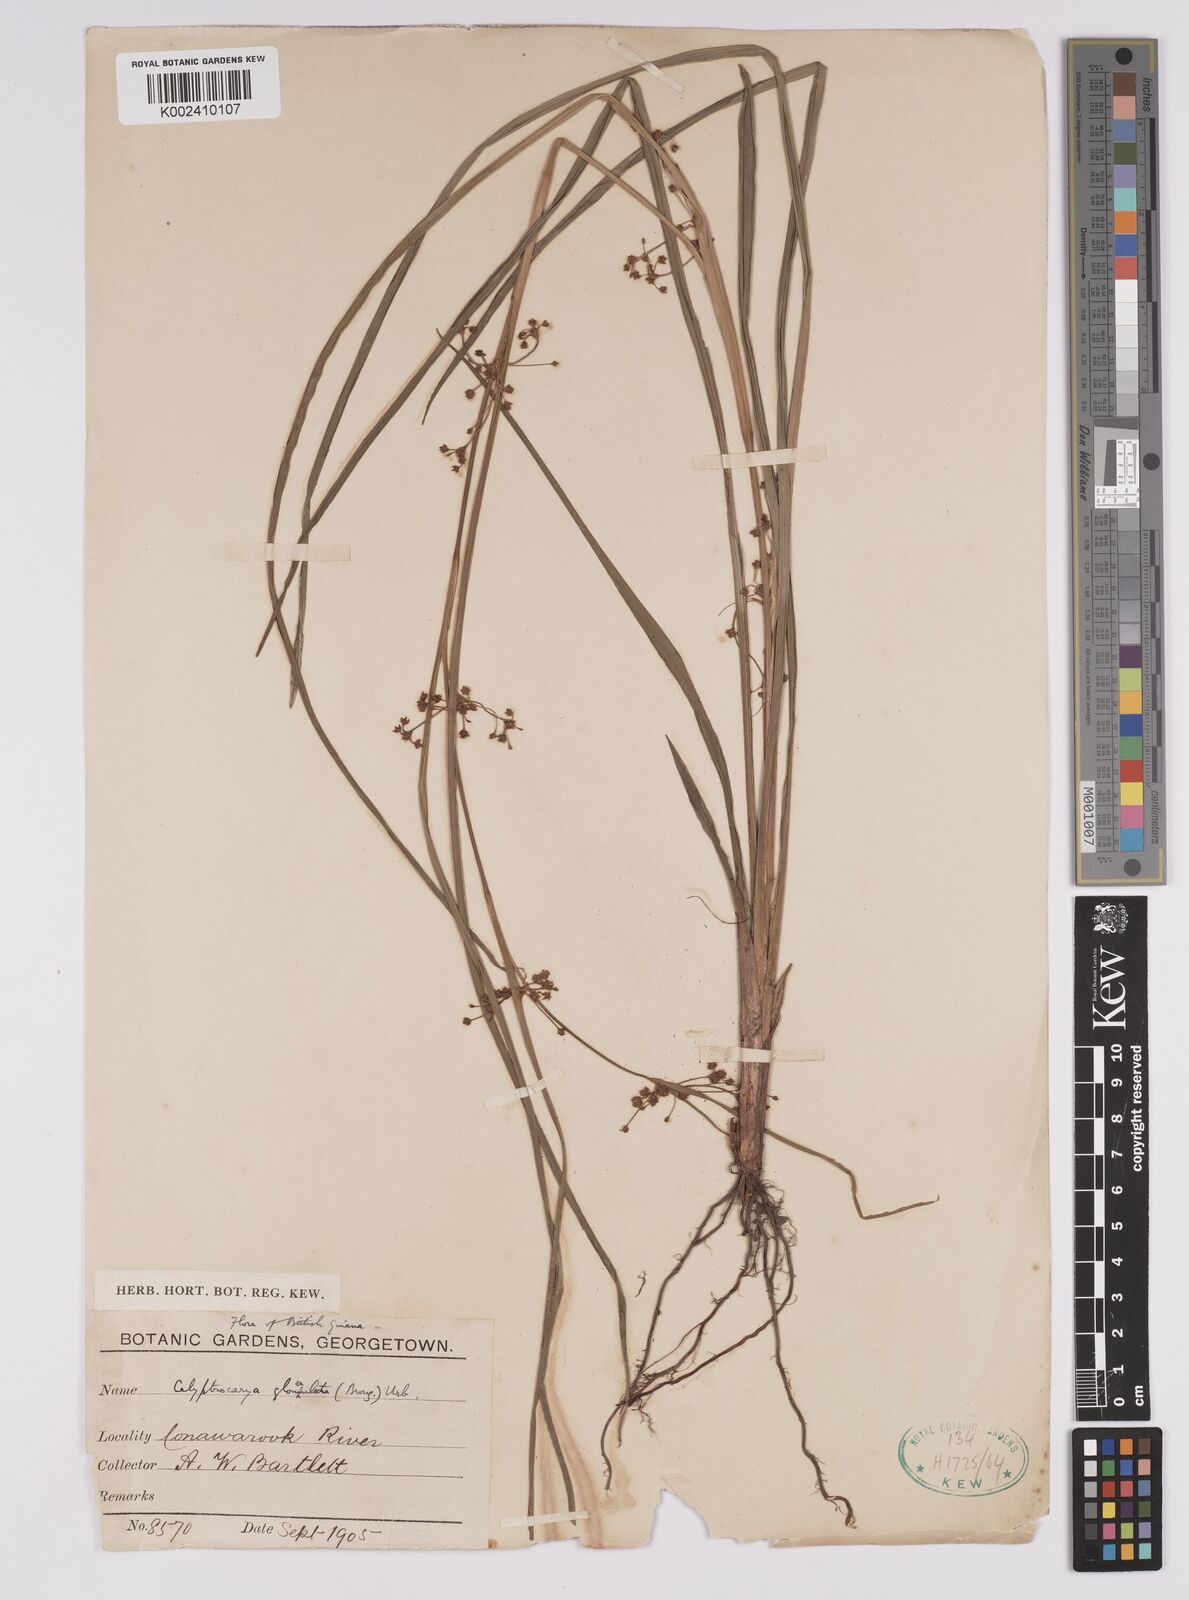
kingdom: Plantae
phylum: Tracheophyta
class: Liliopsida
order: Poales
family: Cyperaceae
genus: Calyptrocarya
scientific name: Calyptrocarya glomerulata
